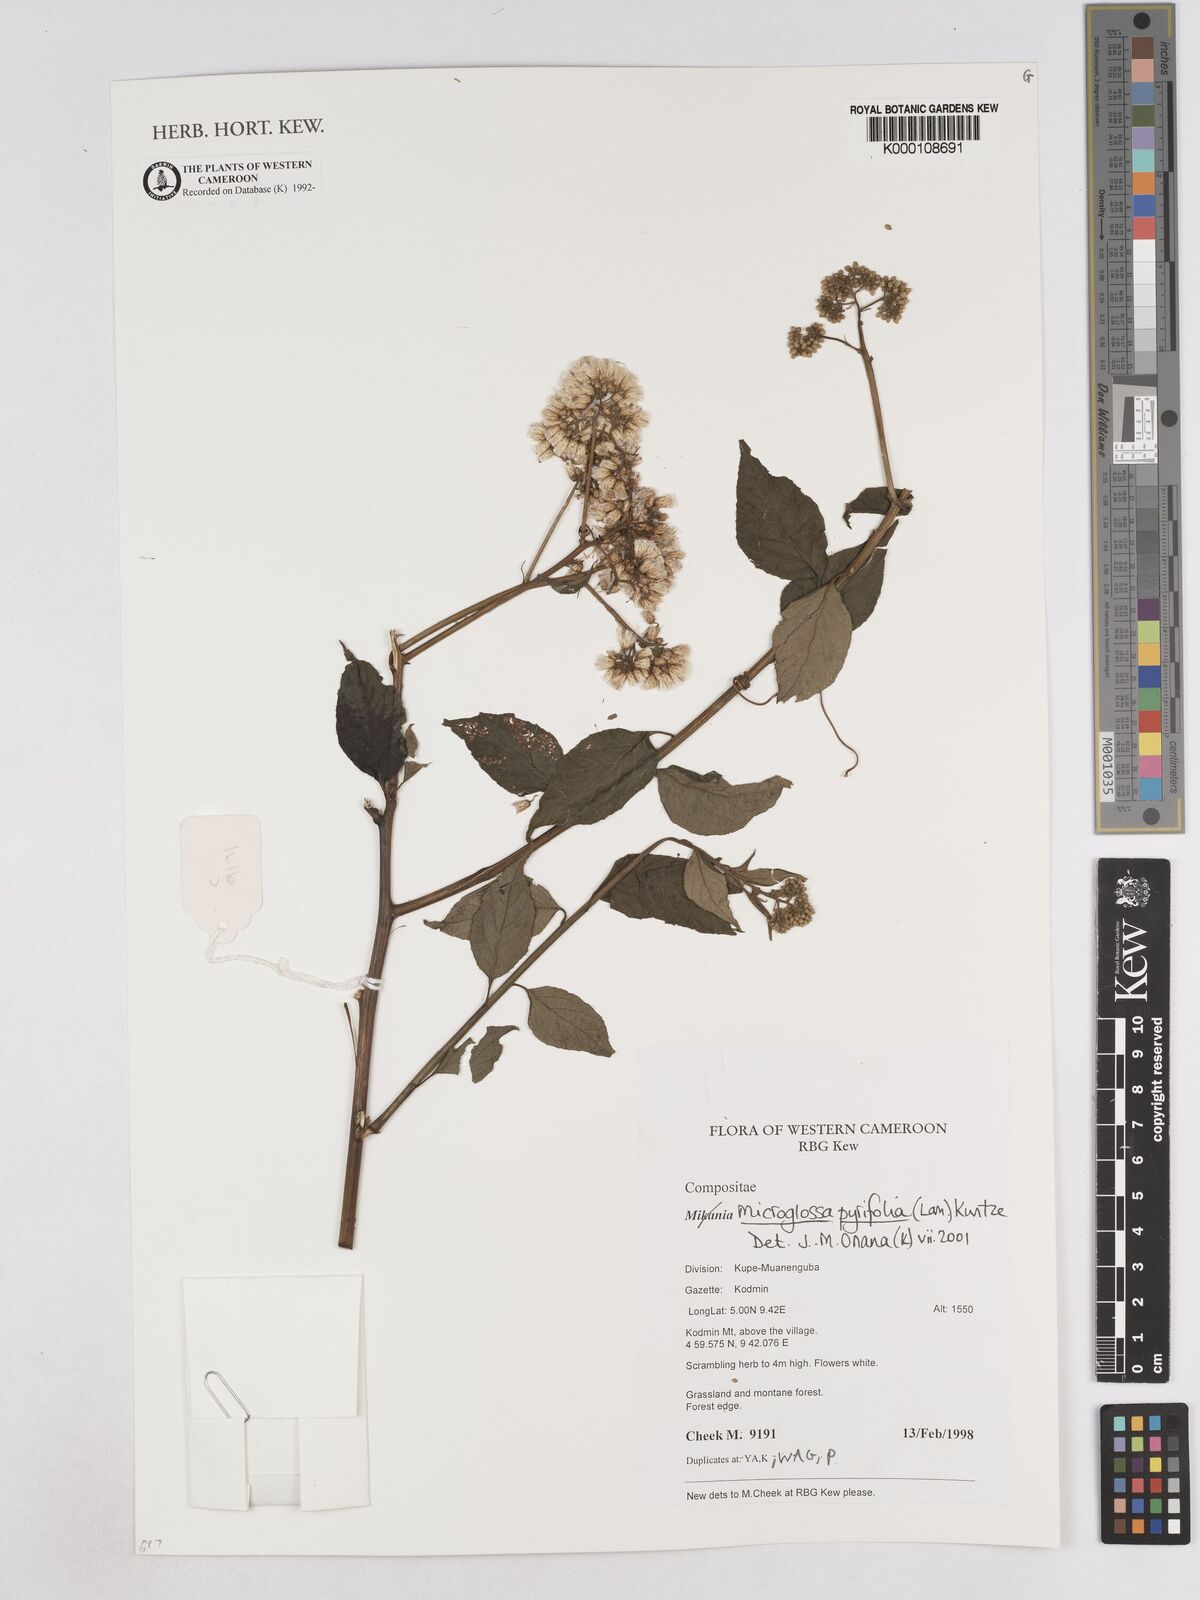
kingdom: Plantae
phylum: Tracheophyta
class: Magnoliopsida
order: Asterales
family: Asteraceae
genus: Microglossa
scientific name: Microglossa pyrifolia
